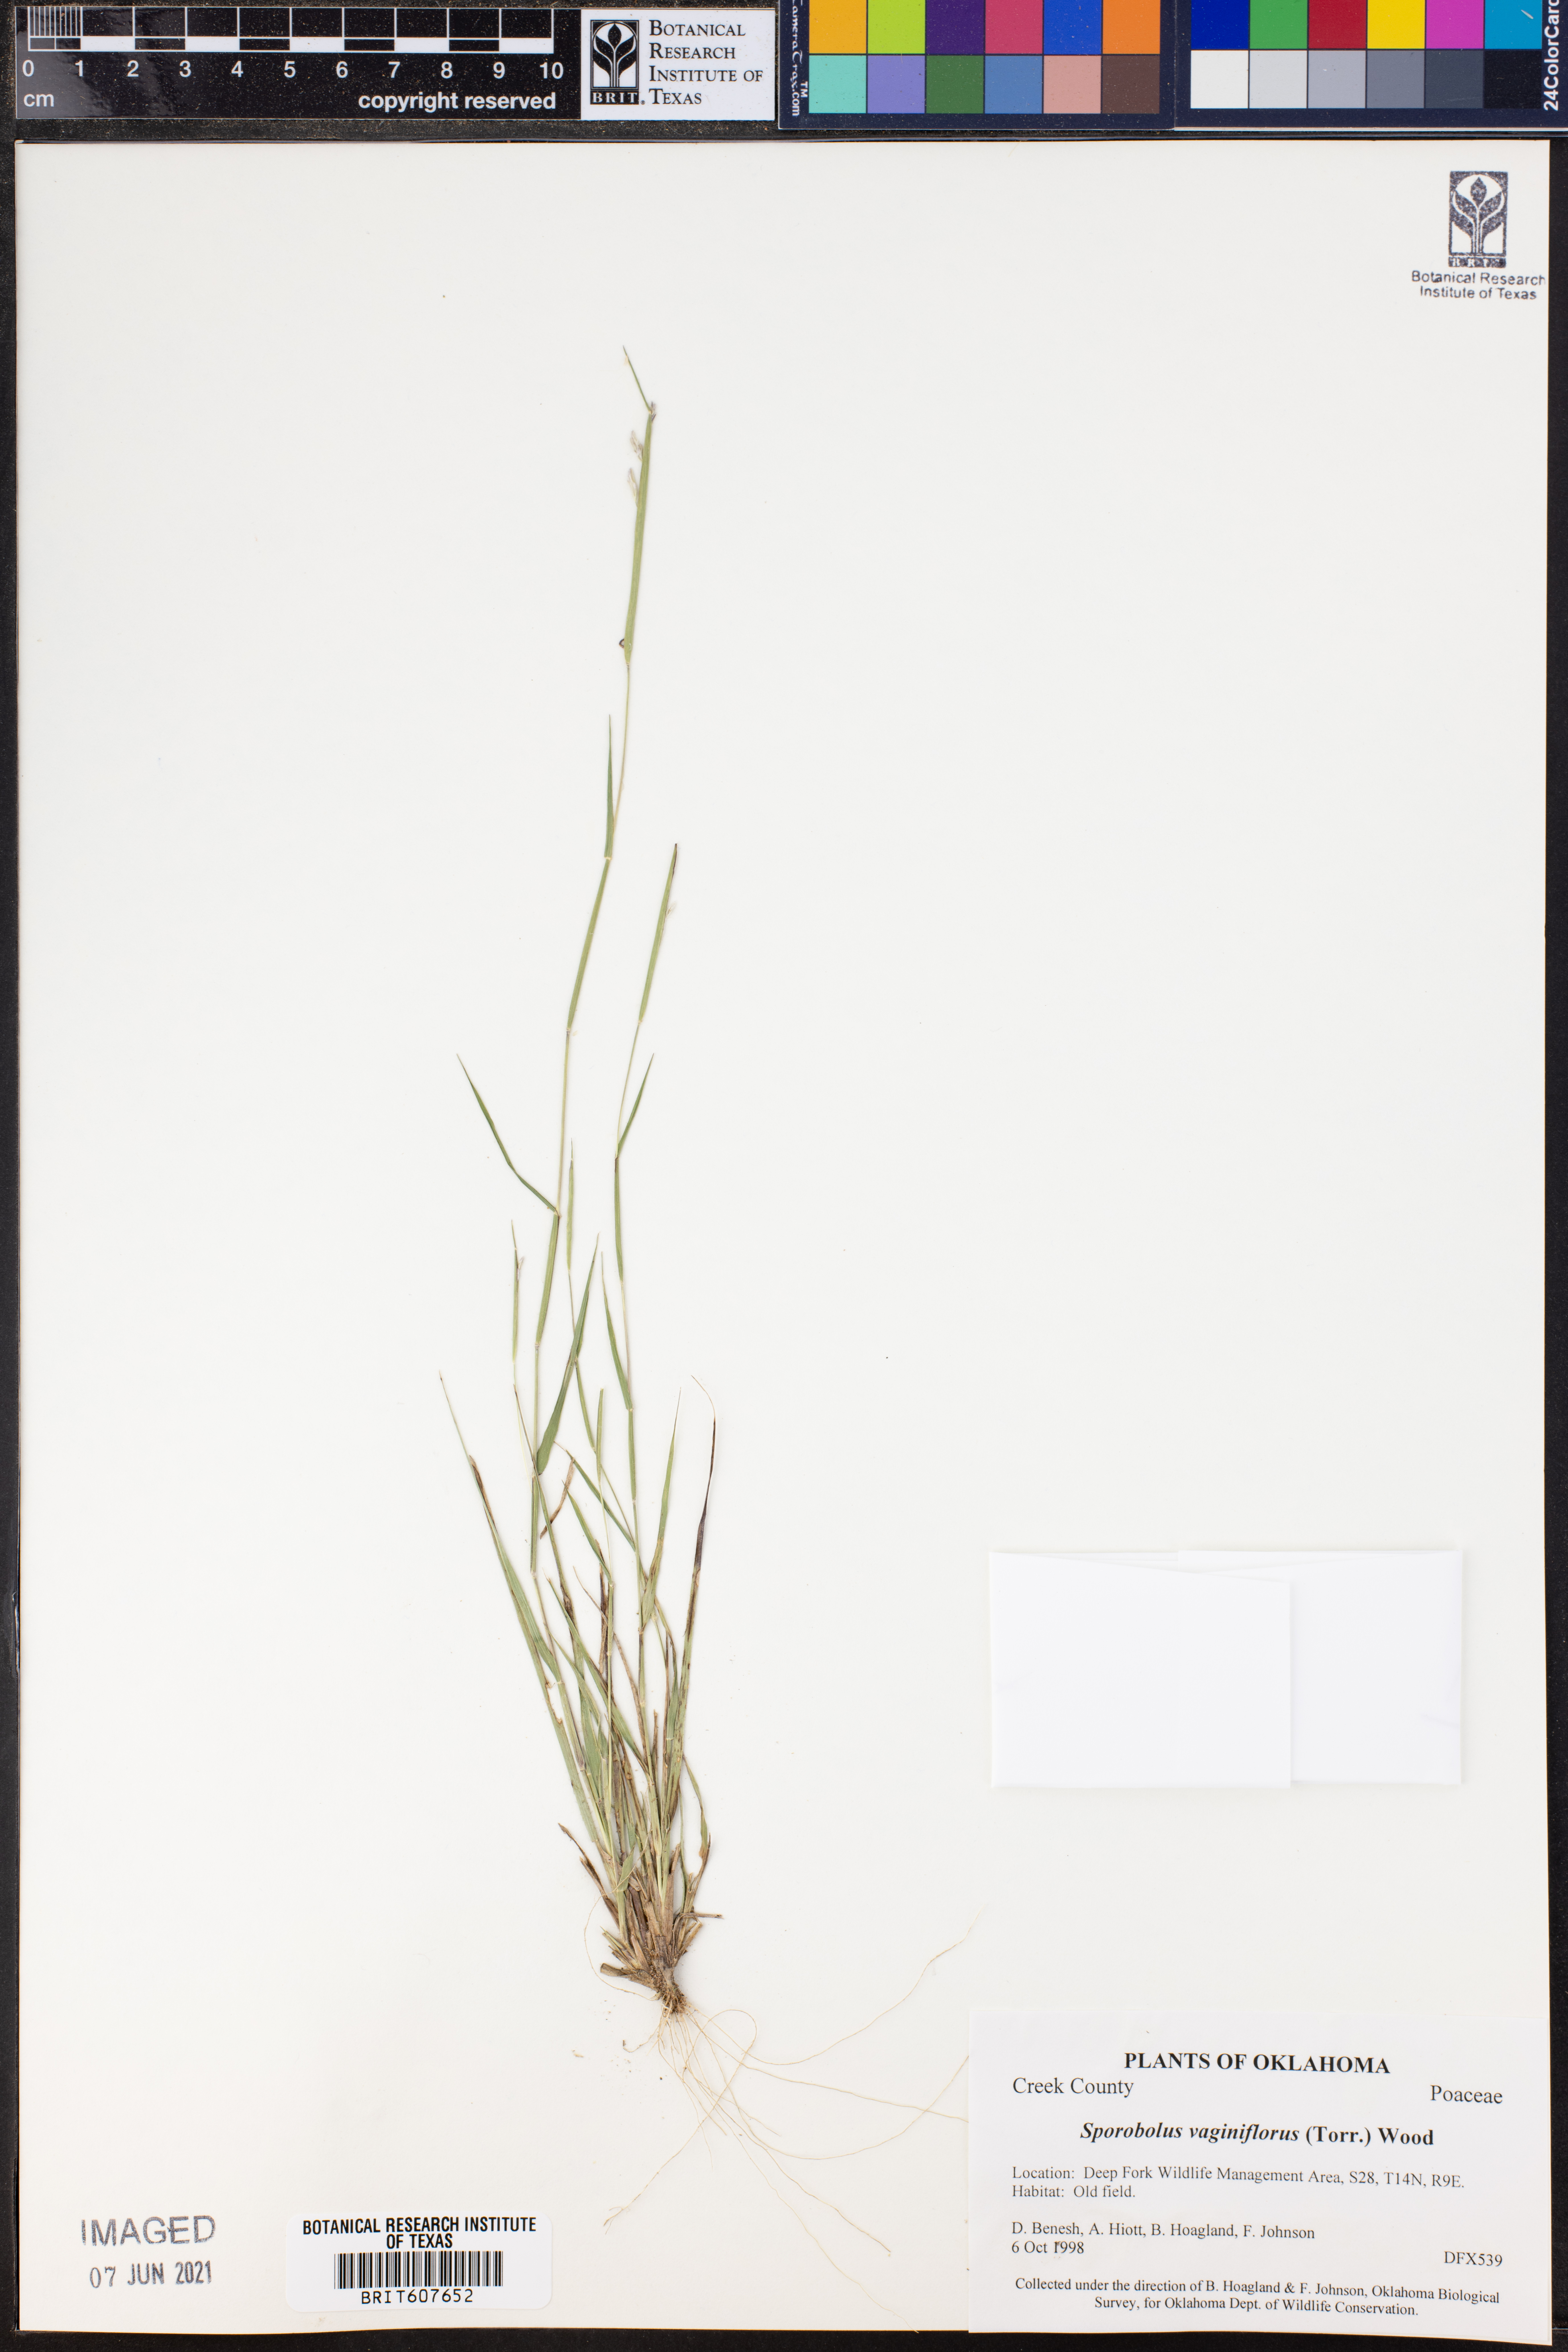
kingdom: Plantae
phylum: Tracheophyta
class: Liliopsida
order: Poales
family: Poaceae
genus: Sporobolus
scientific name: Sporobolus vaginiflorus
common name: Poverty dropseed
